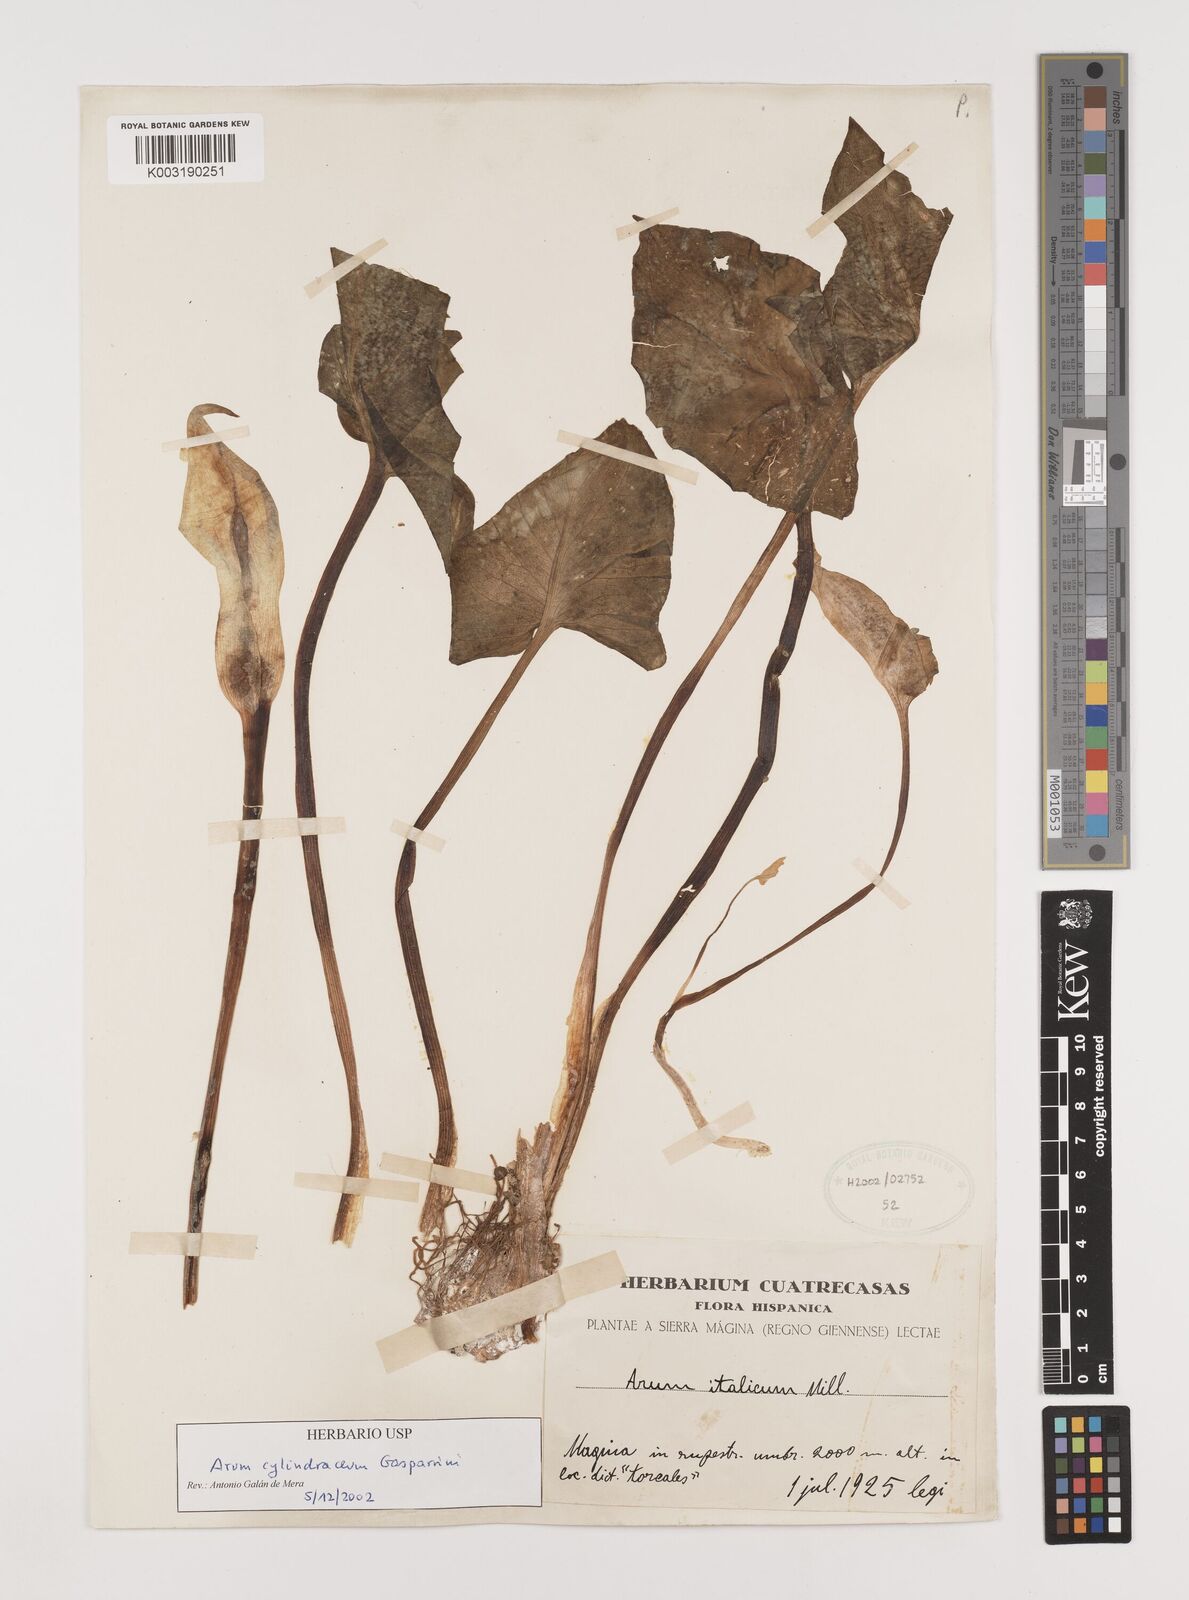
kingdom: Plantae
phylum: Tracheophyta
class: Liliopsida
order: Alismatales
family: Araceae
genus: Arum
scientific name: Arum cylindraceum
